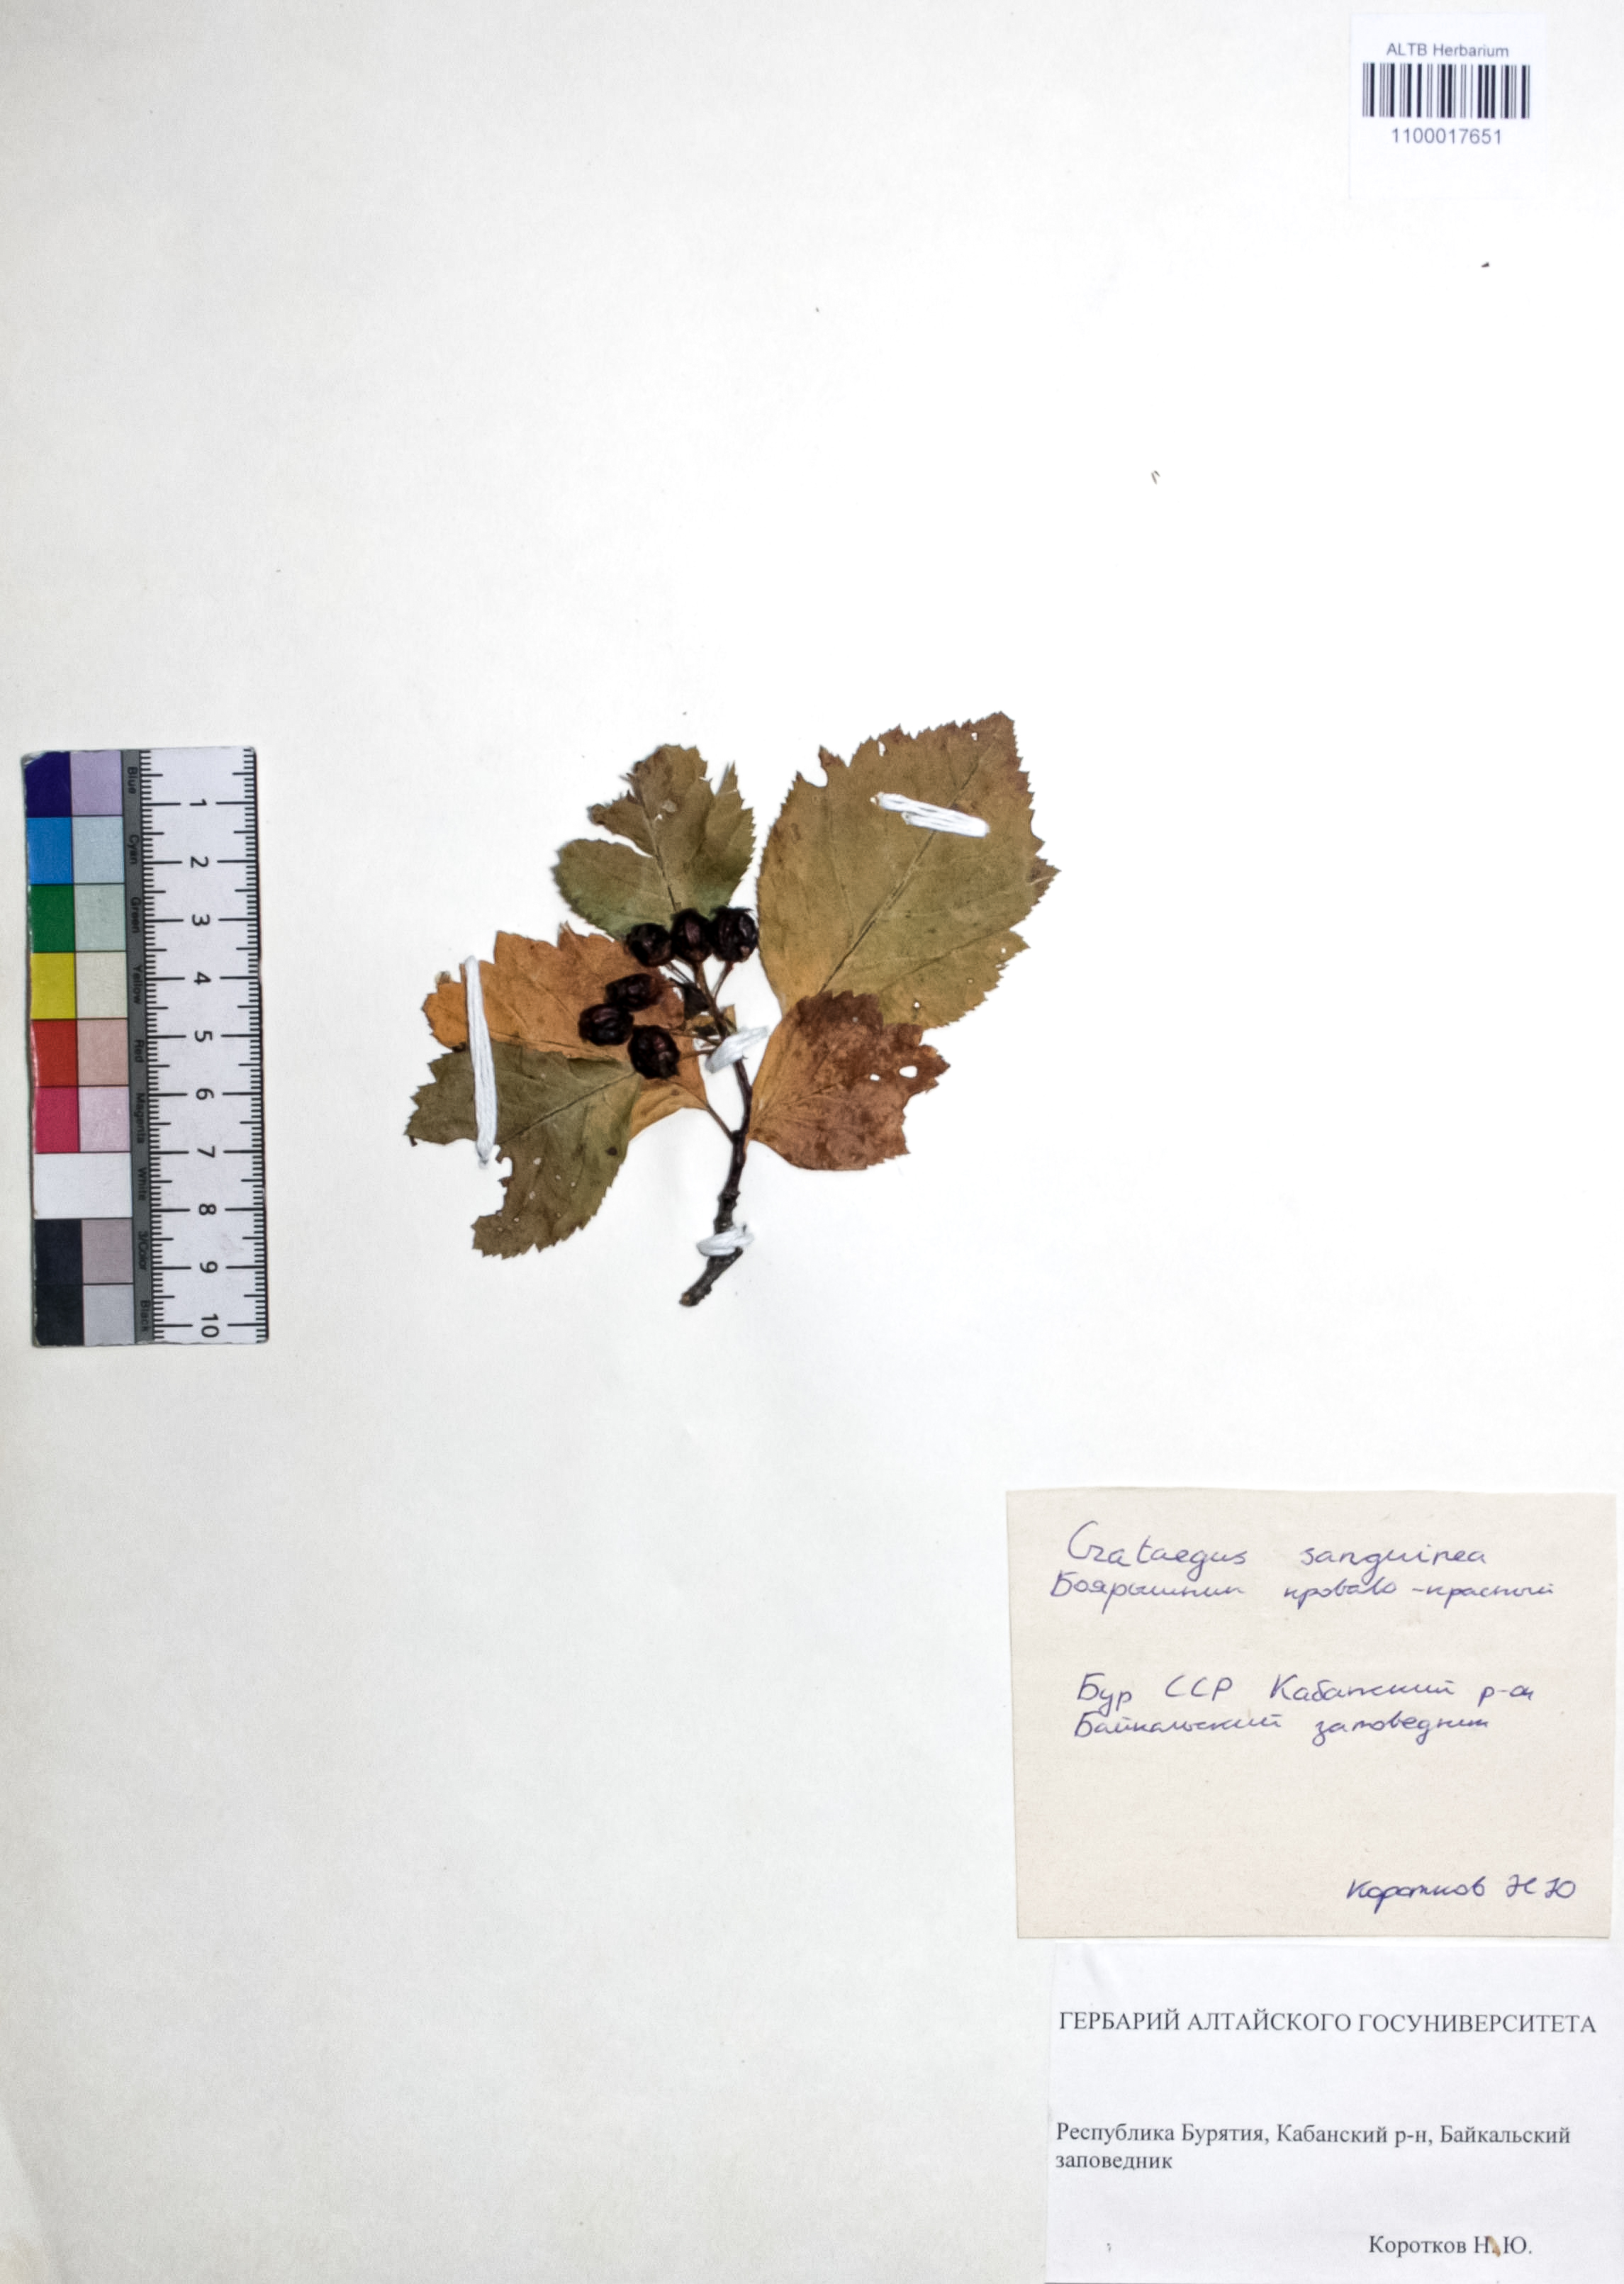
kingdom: Plantae
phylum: Tracheophyta
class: Magnoliopsida
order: Rosales
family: Rosaceae
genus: Crataegus
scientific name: Crataegus sanguinea
